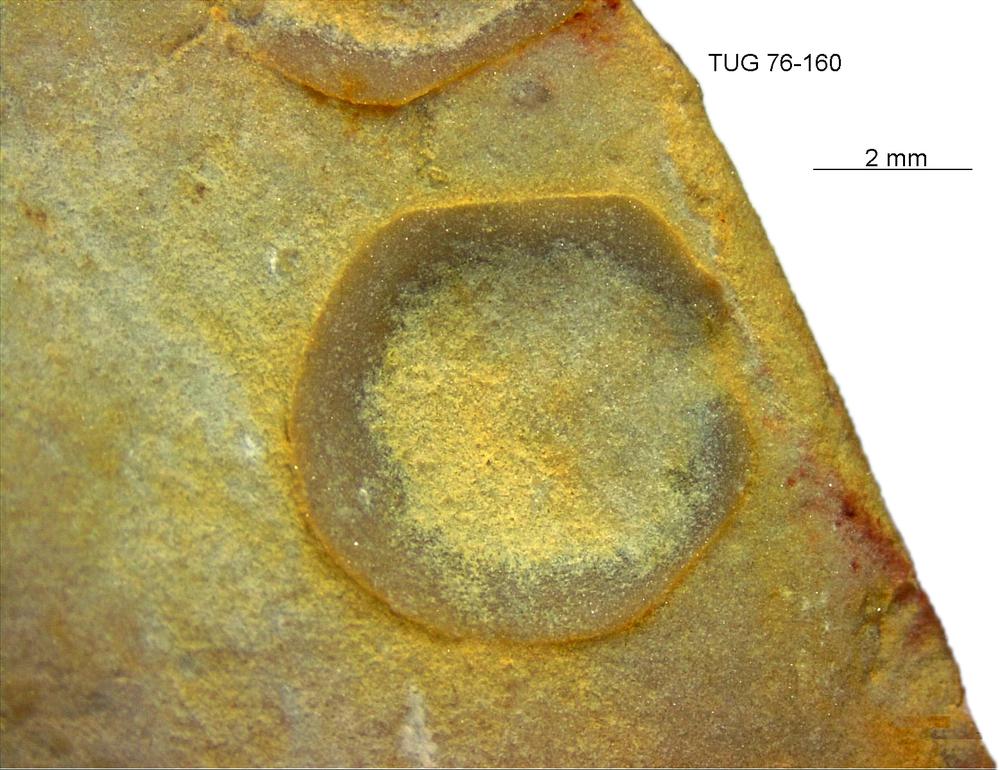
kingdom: Animalia
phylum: Brachiopoda
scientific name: Brachiopoda
